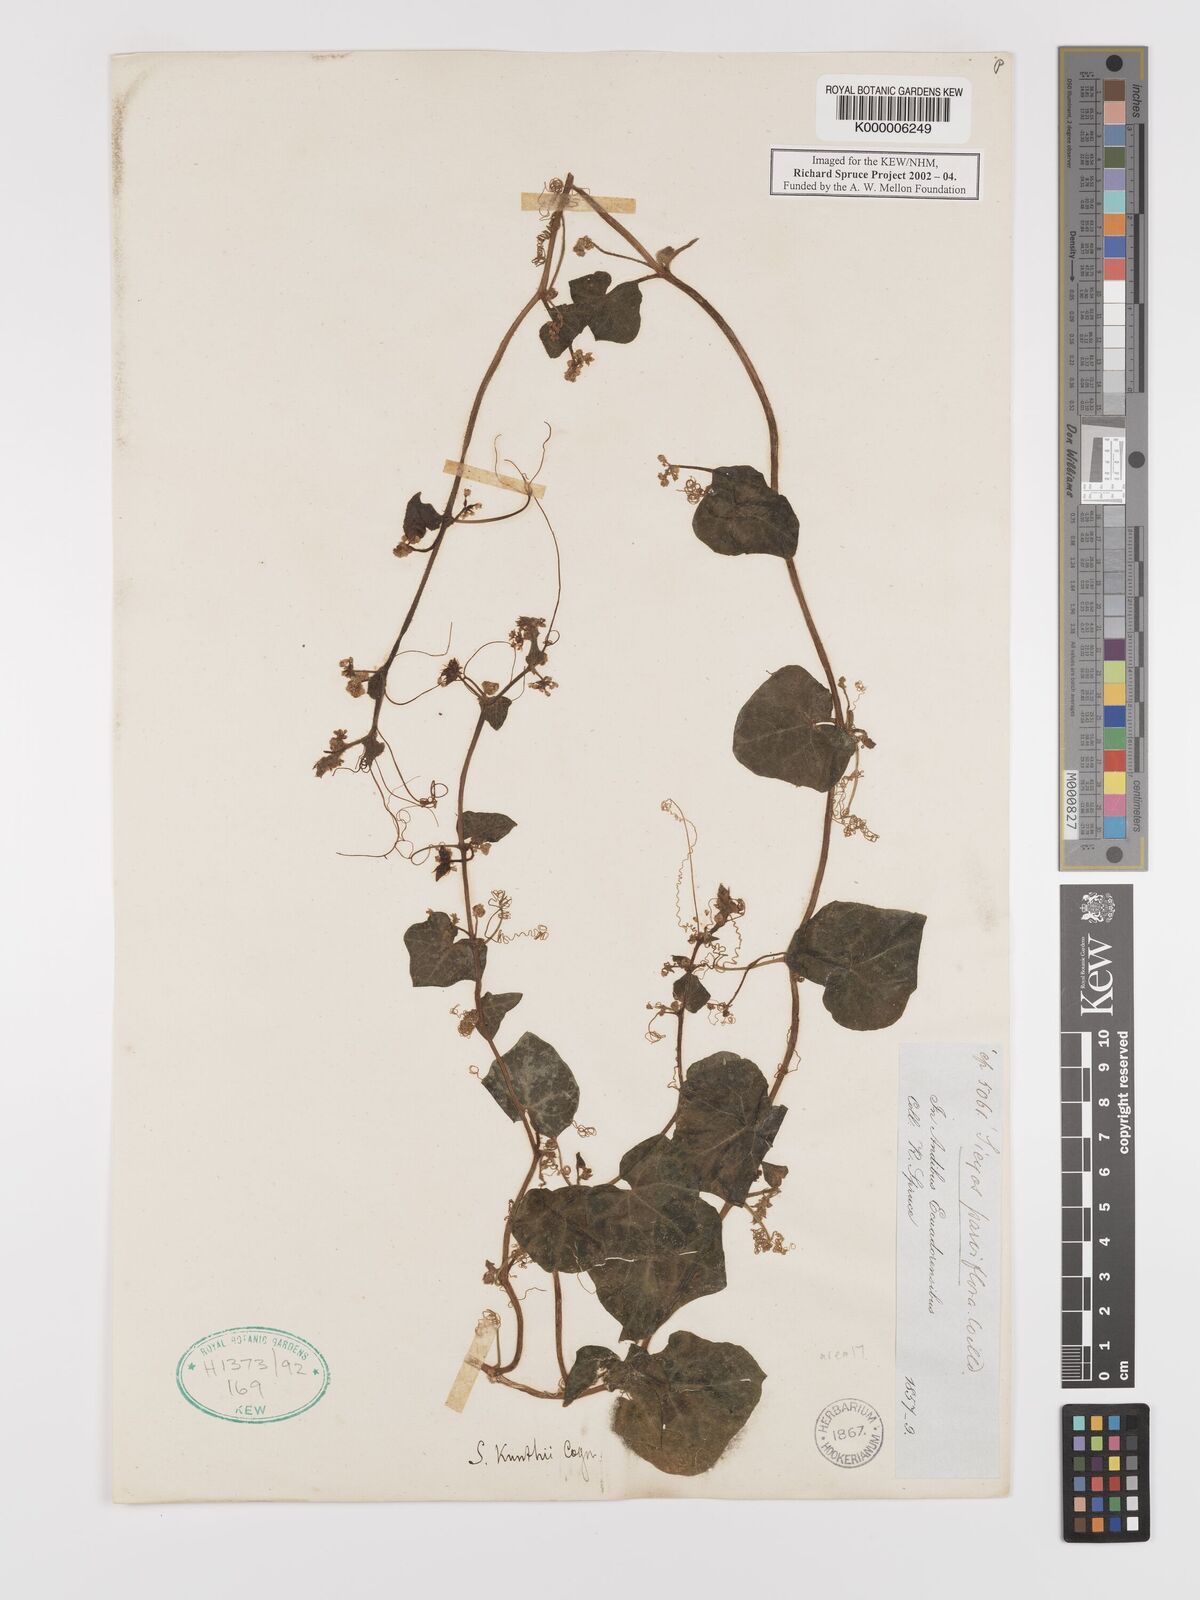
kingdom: Plantae
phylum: Tracheophyta
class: Magnoliopsida
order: Cucurbitales
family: Cucurbitaceae
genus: Sicyos
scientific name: Sicyos kunthii
